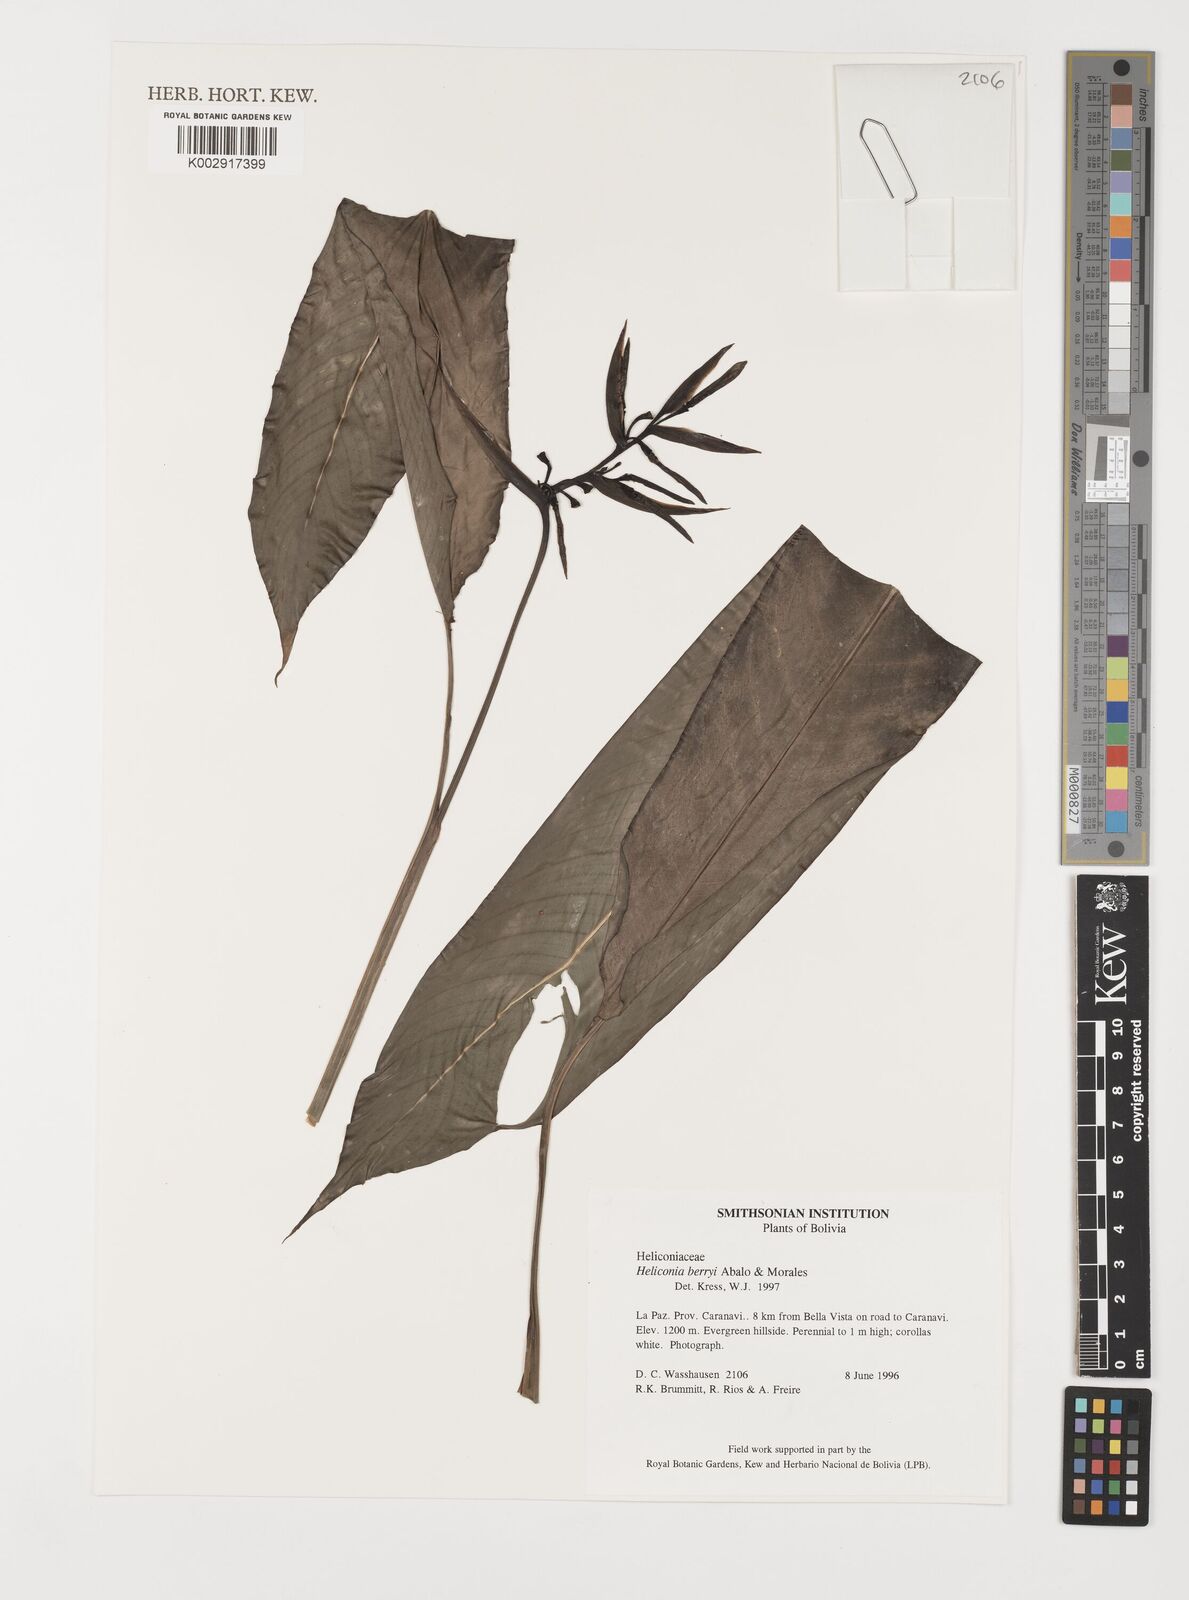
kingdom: Plantae
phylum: Tracheophyta
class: Liliopsida
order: Zingiberales
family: Heliconiaceae
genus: Heliconia
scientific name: Heliconia berryi
